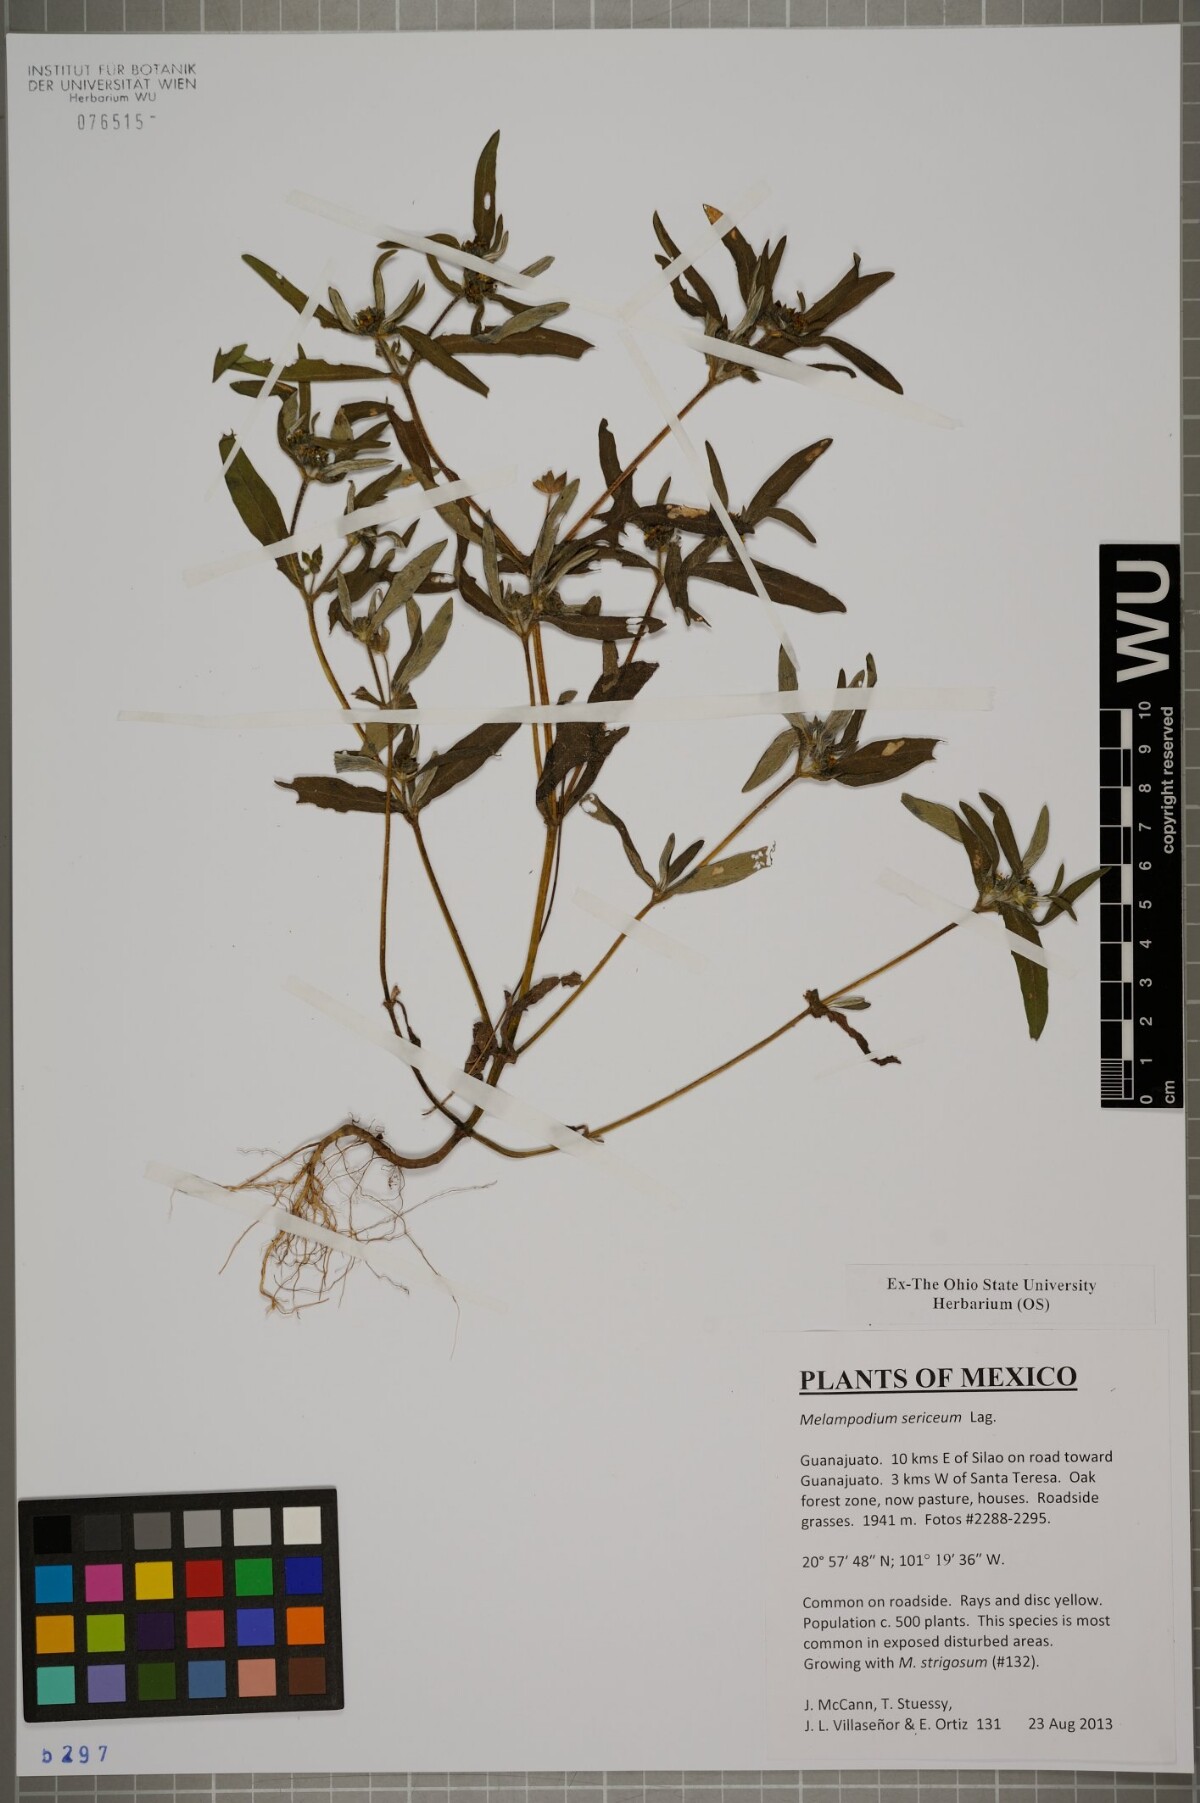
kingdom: Plantae
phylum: Tracheophyta
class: Magnoliopsida
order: Asterales
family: Asteraceae
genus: Melampodium
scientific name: Melampodium sericeum
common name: Rough blackfoot
